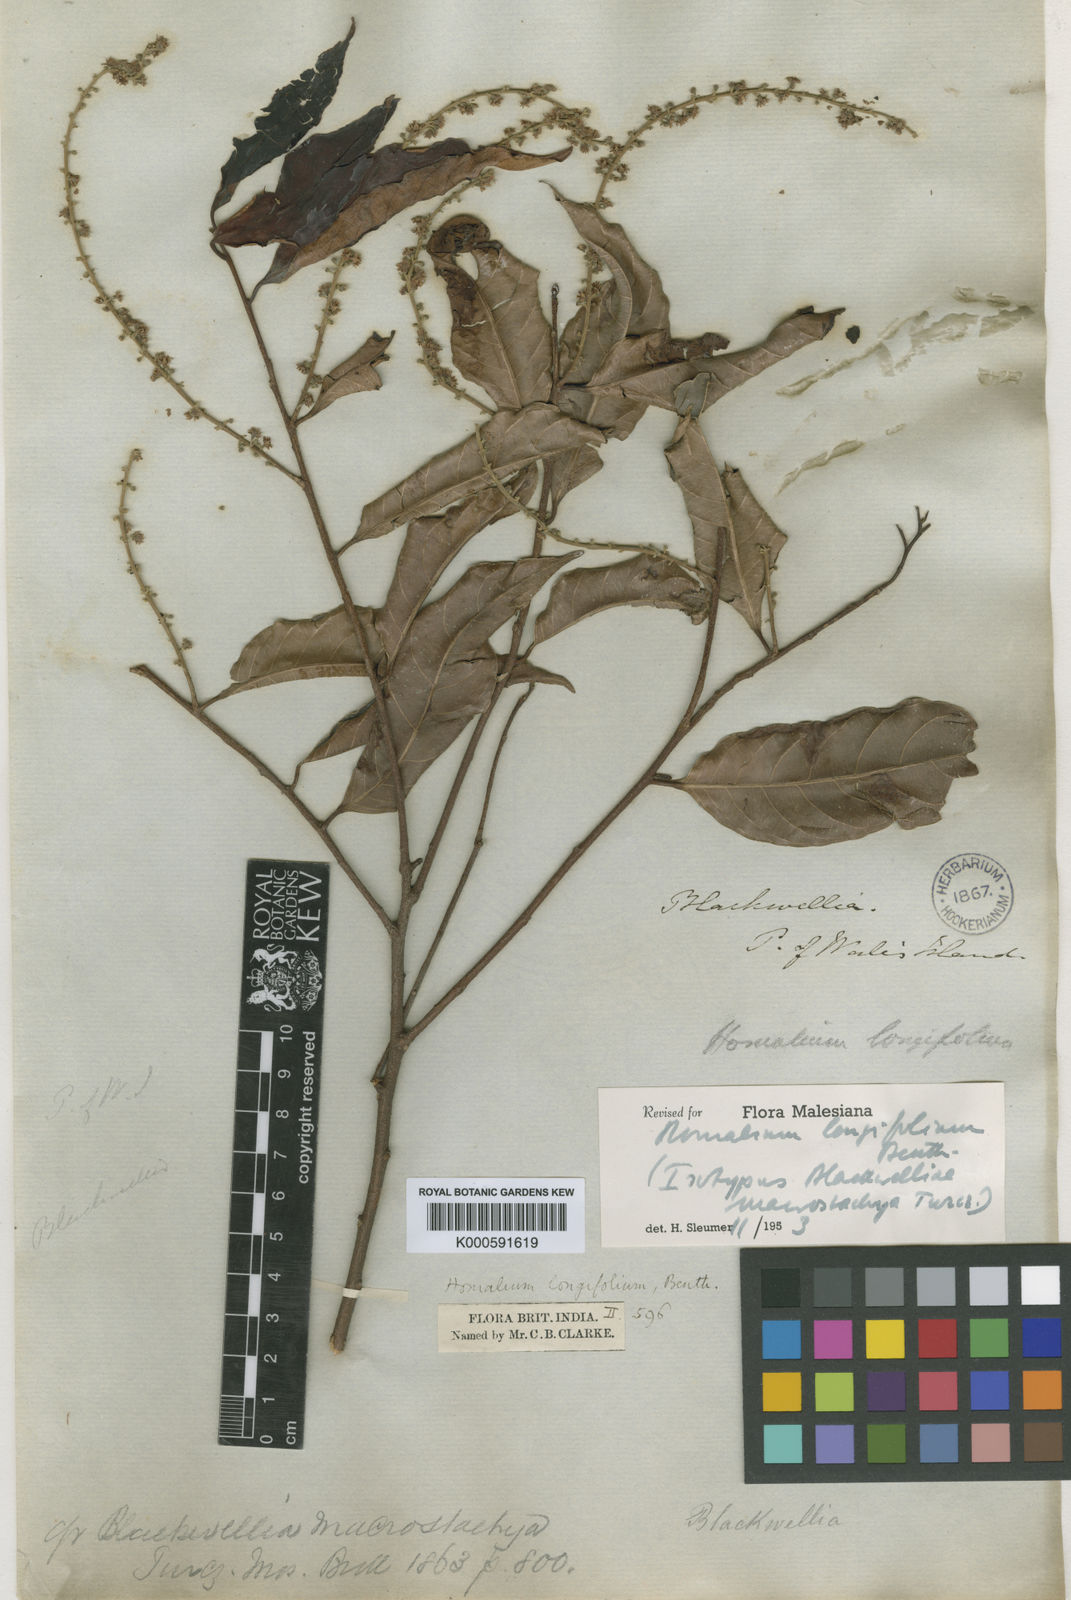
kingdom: Plantae
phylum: Tracheophyta
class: Magnoliopsida
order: Malpighiales
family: Salicaceae
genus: Homalium
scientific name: Homalium longifolium
